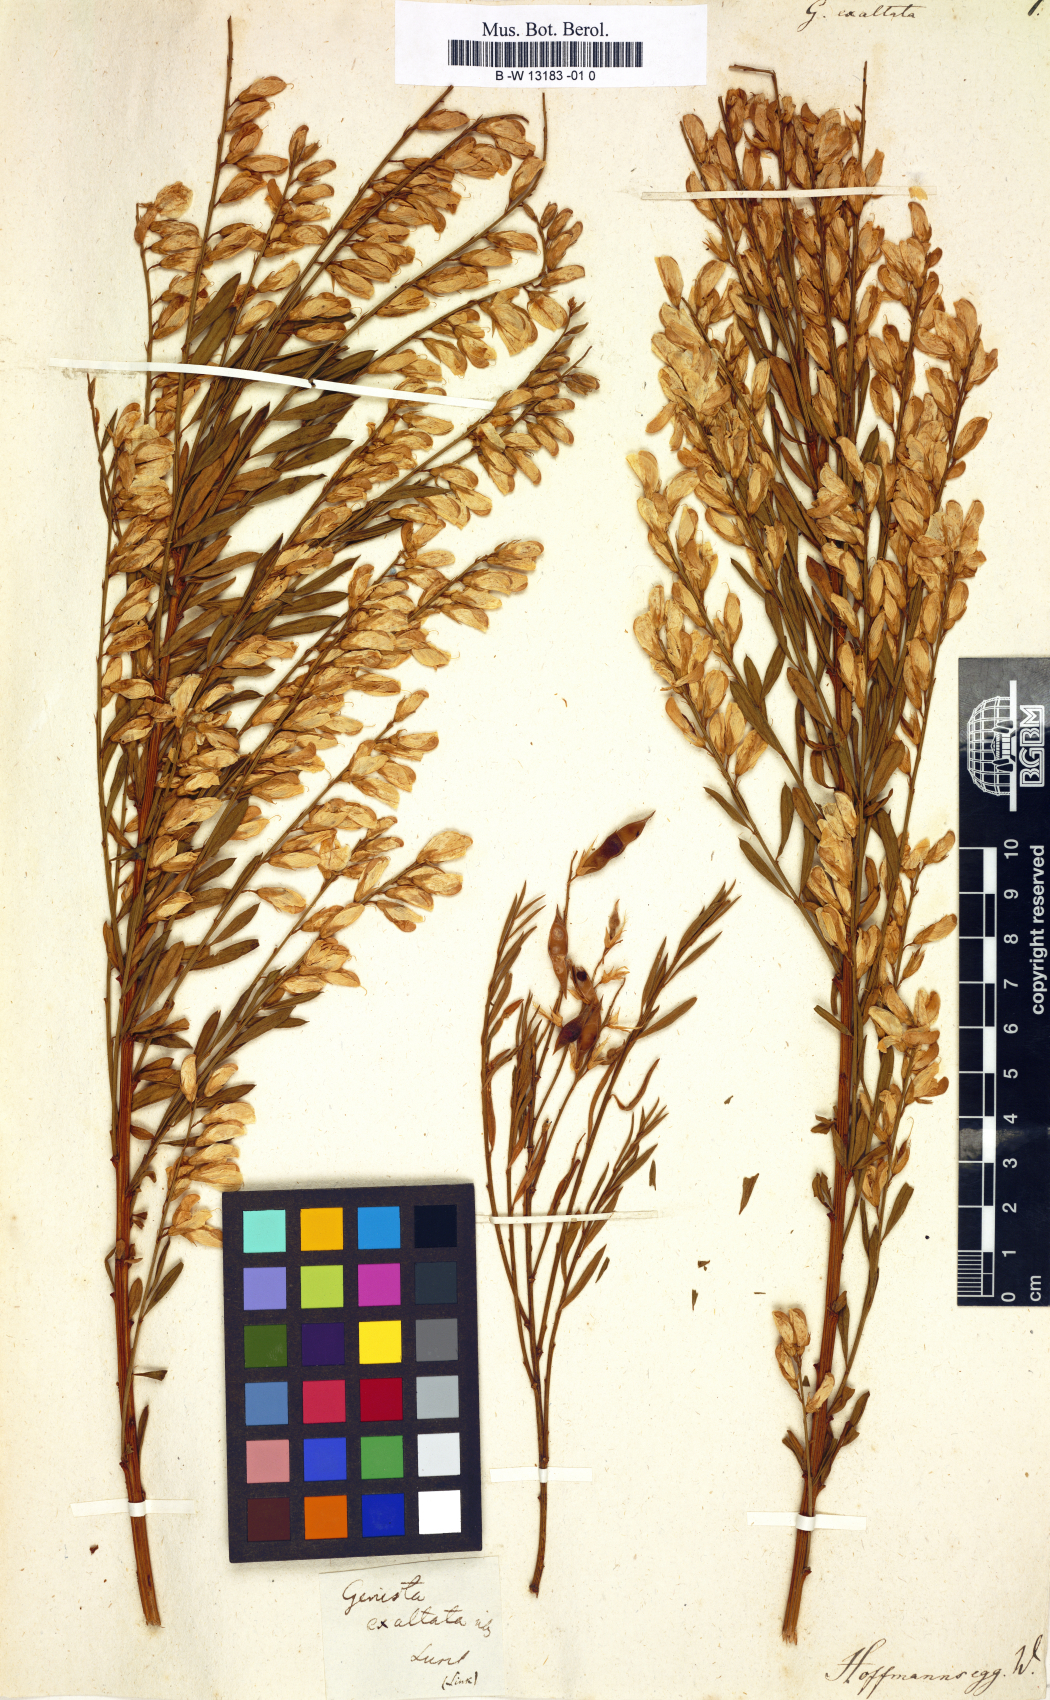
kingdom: Plantae
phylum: Tracheophyta
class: Magnoliopsida
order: Fabales
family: Fabaceae
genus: Genista
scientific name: Genista florida
